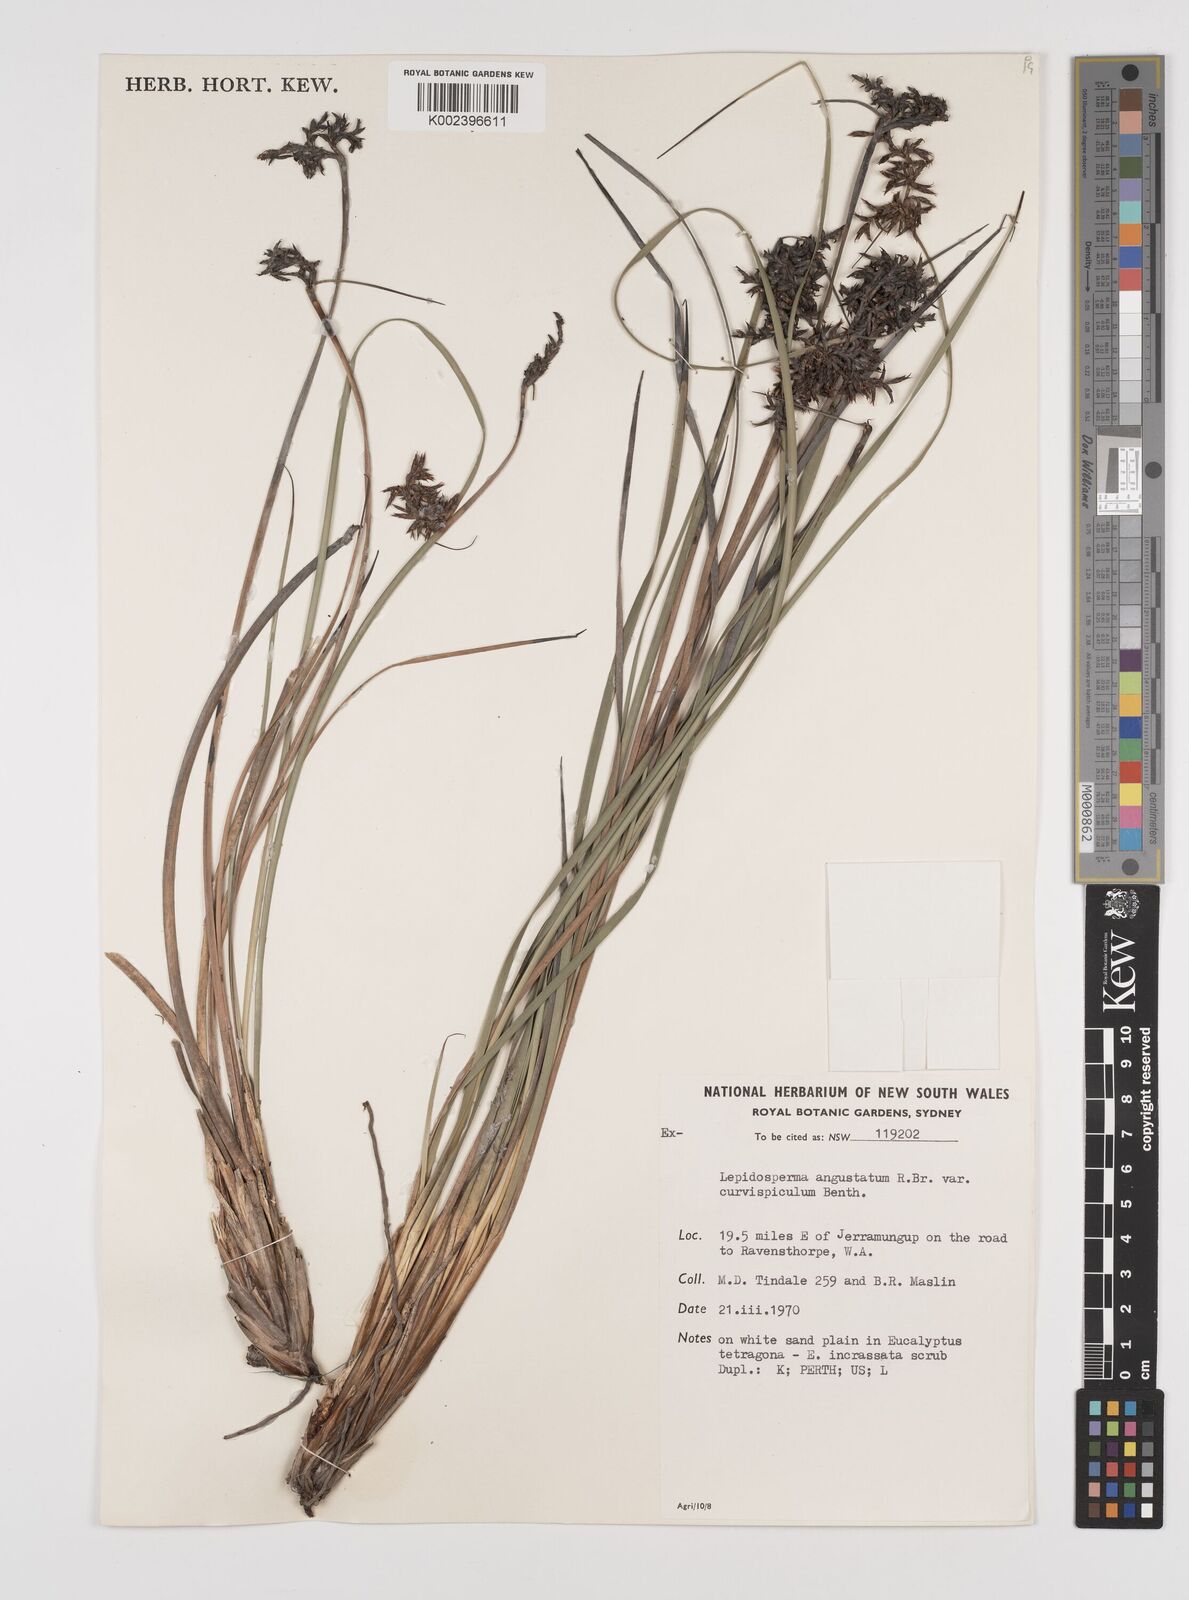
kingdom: Plantae
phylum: Tracheophyta
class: Liliopsida
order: Poales
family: Cyperaceae
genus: Lepidosperma
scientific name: Lepidosperma angustatum
